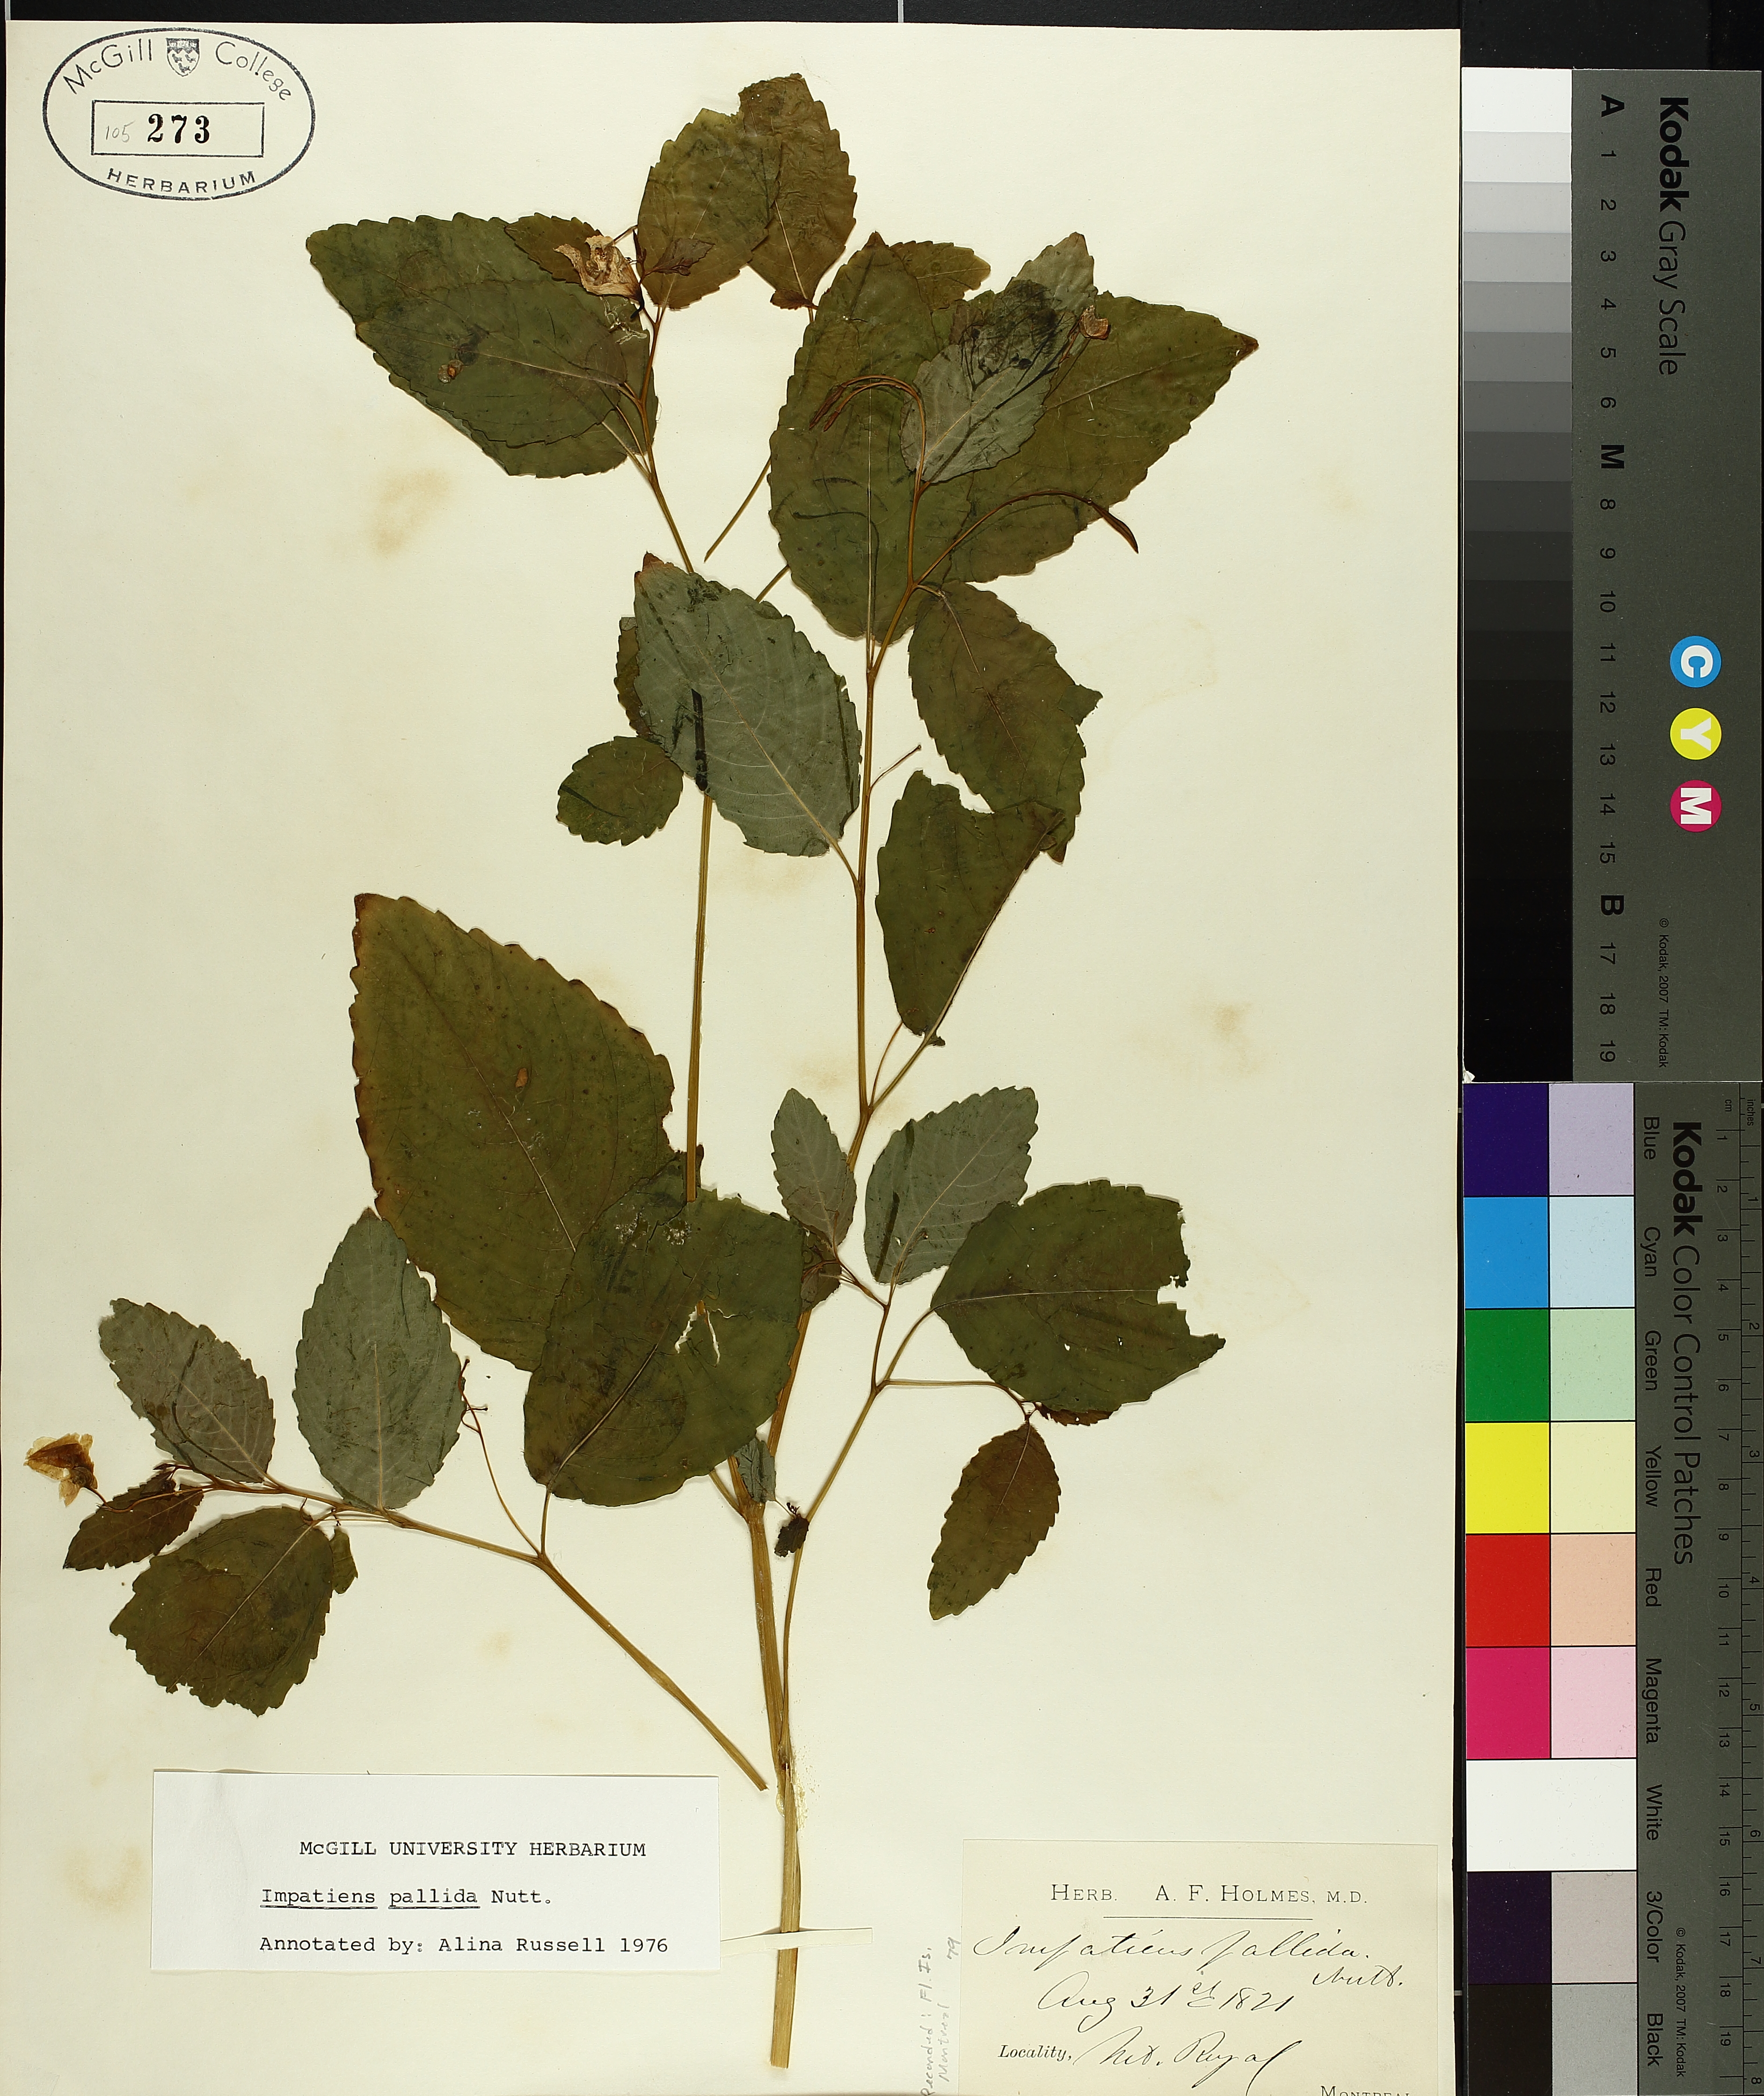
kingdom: Plantae
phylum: Tracheophyta
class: Magnoliopsida
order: Ericales
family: Balsaminaceae
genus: Impatiens
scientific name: Impatiens pallida
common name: Pale snapweed
